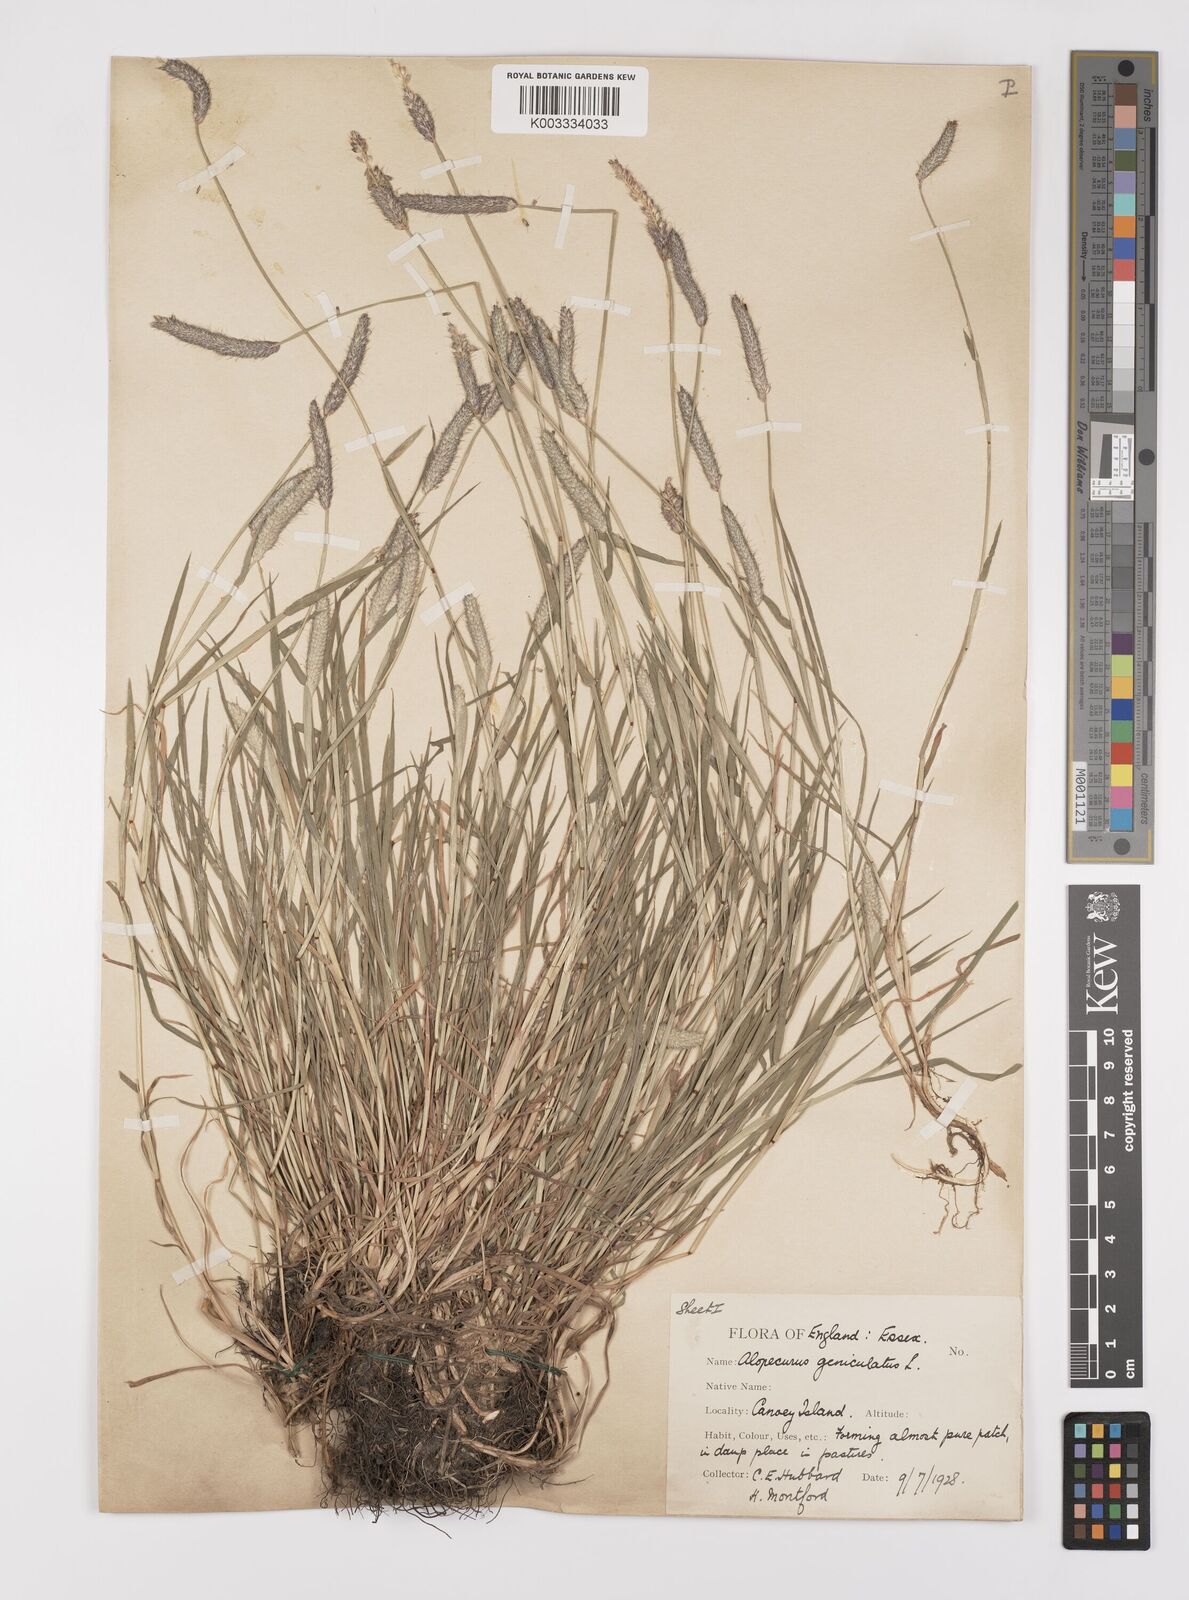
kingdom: Plantae
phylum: Tracheophyta
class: Liliopsida
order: Poales
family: Poaceae
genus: Alopecurus
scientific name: Alopecurus geniculatus
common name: Water foxtail
